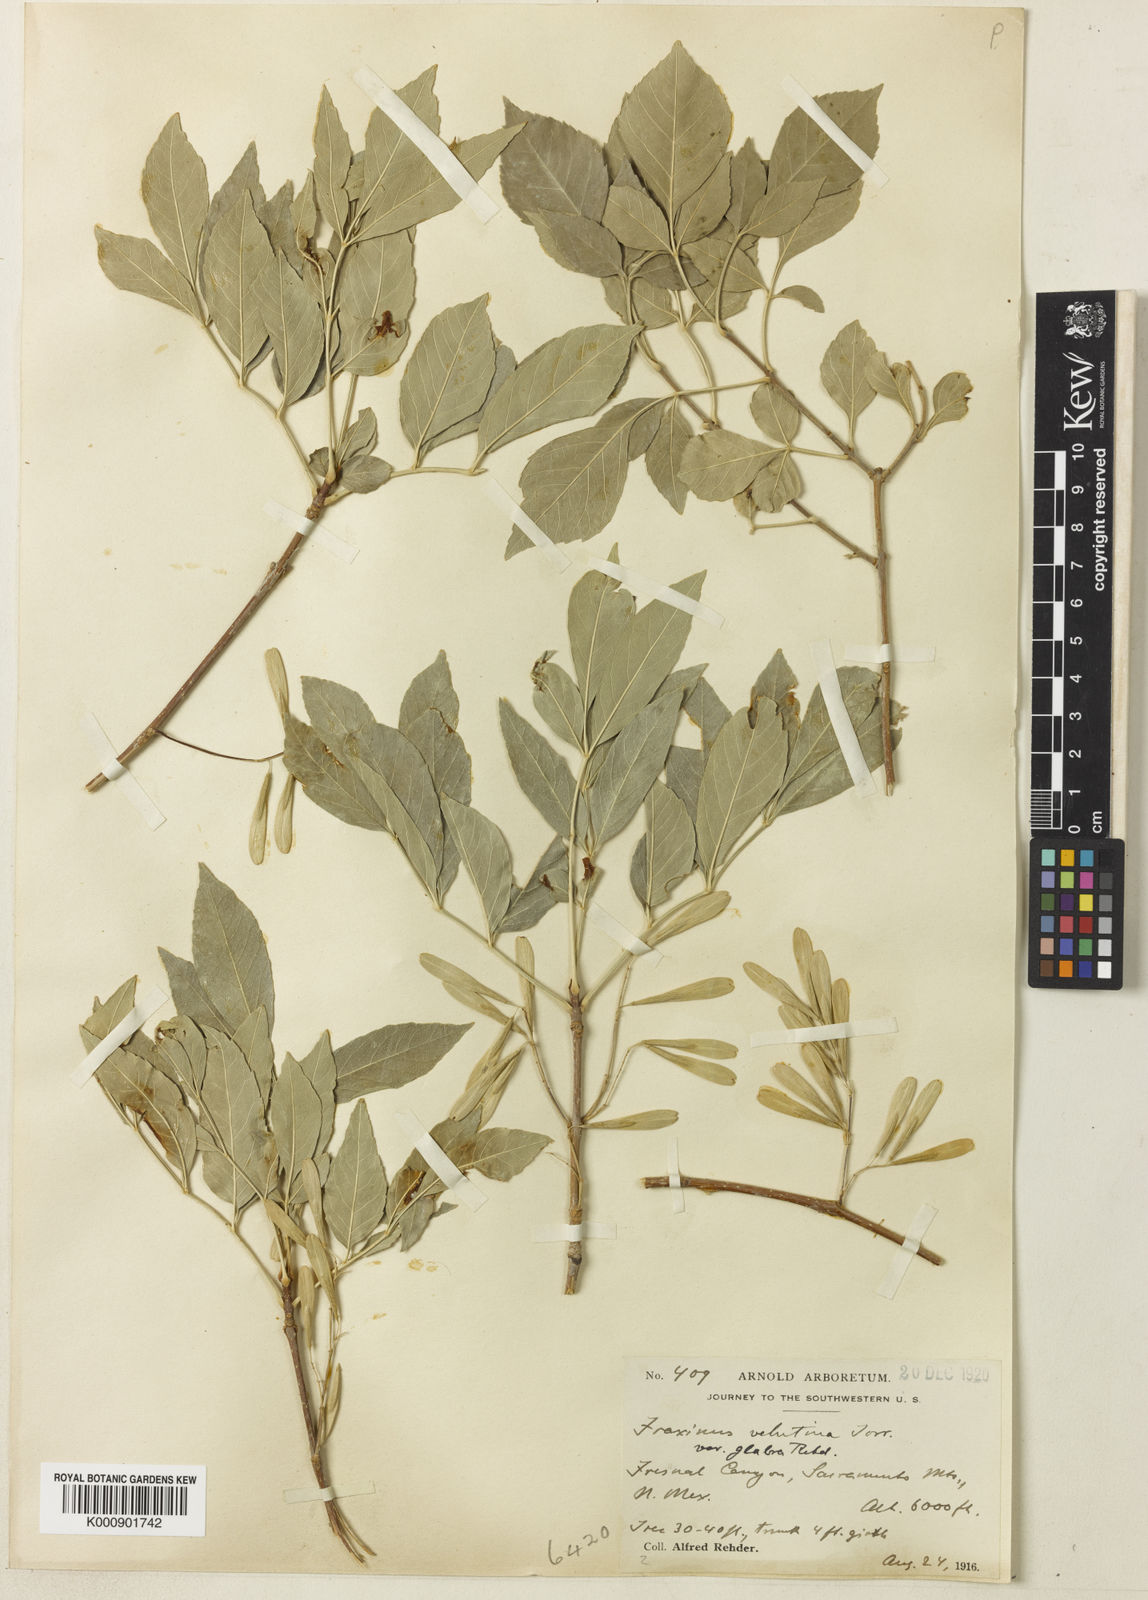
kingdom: Plantae
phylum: Tracheophyta
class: Magnoliopsida
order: Lamiales
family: Oleaceae
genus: Fraxinus
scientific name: Fraxinus velutina
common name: Arizon ash
